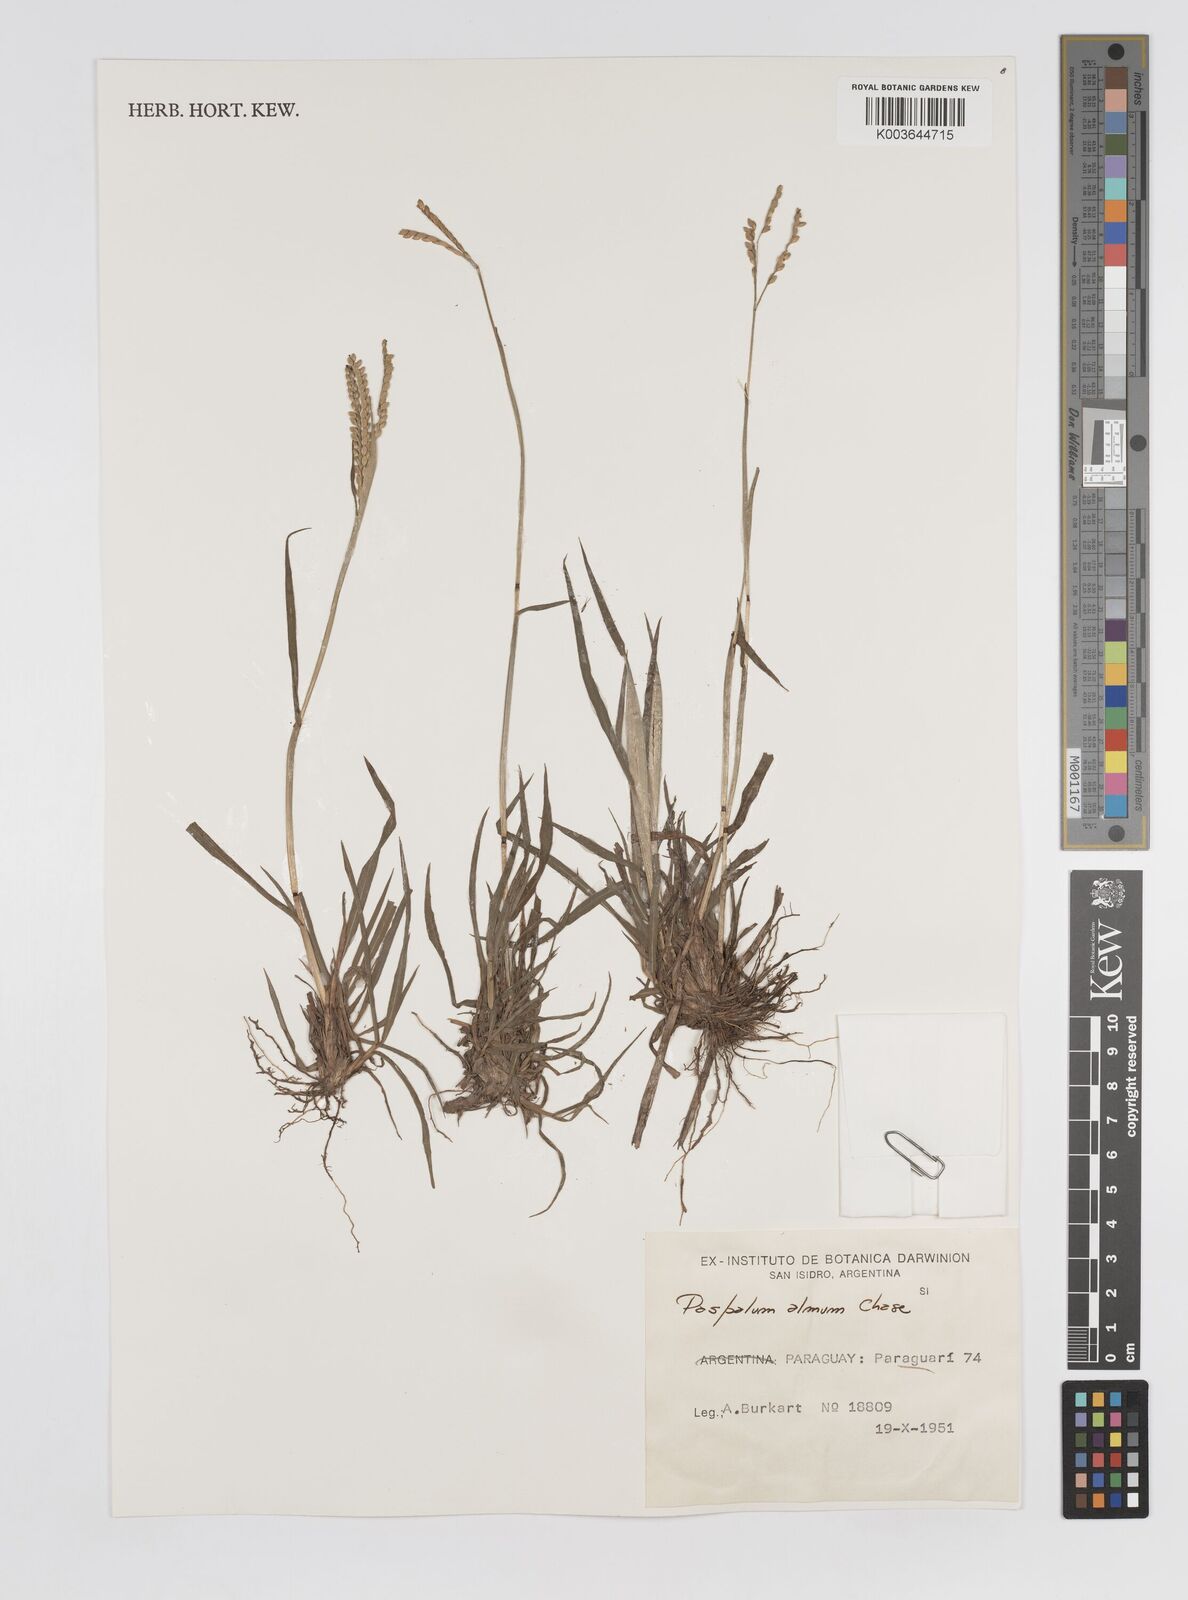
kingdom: Plantae
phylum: Tracheophyta
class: Liliopsida
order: Poales
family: Poaceae
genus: Paspalum
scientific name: Paspalum almum
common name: Comb's crowngrass
